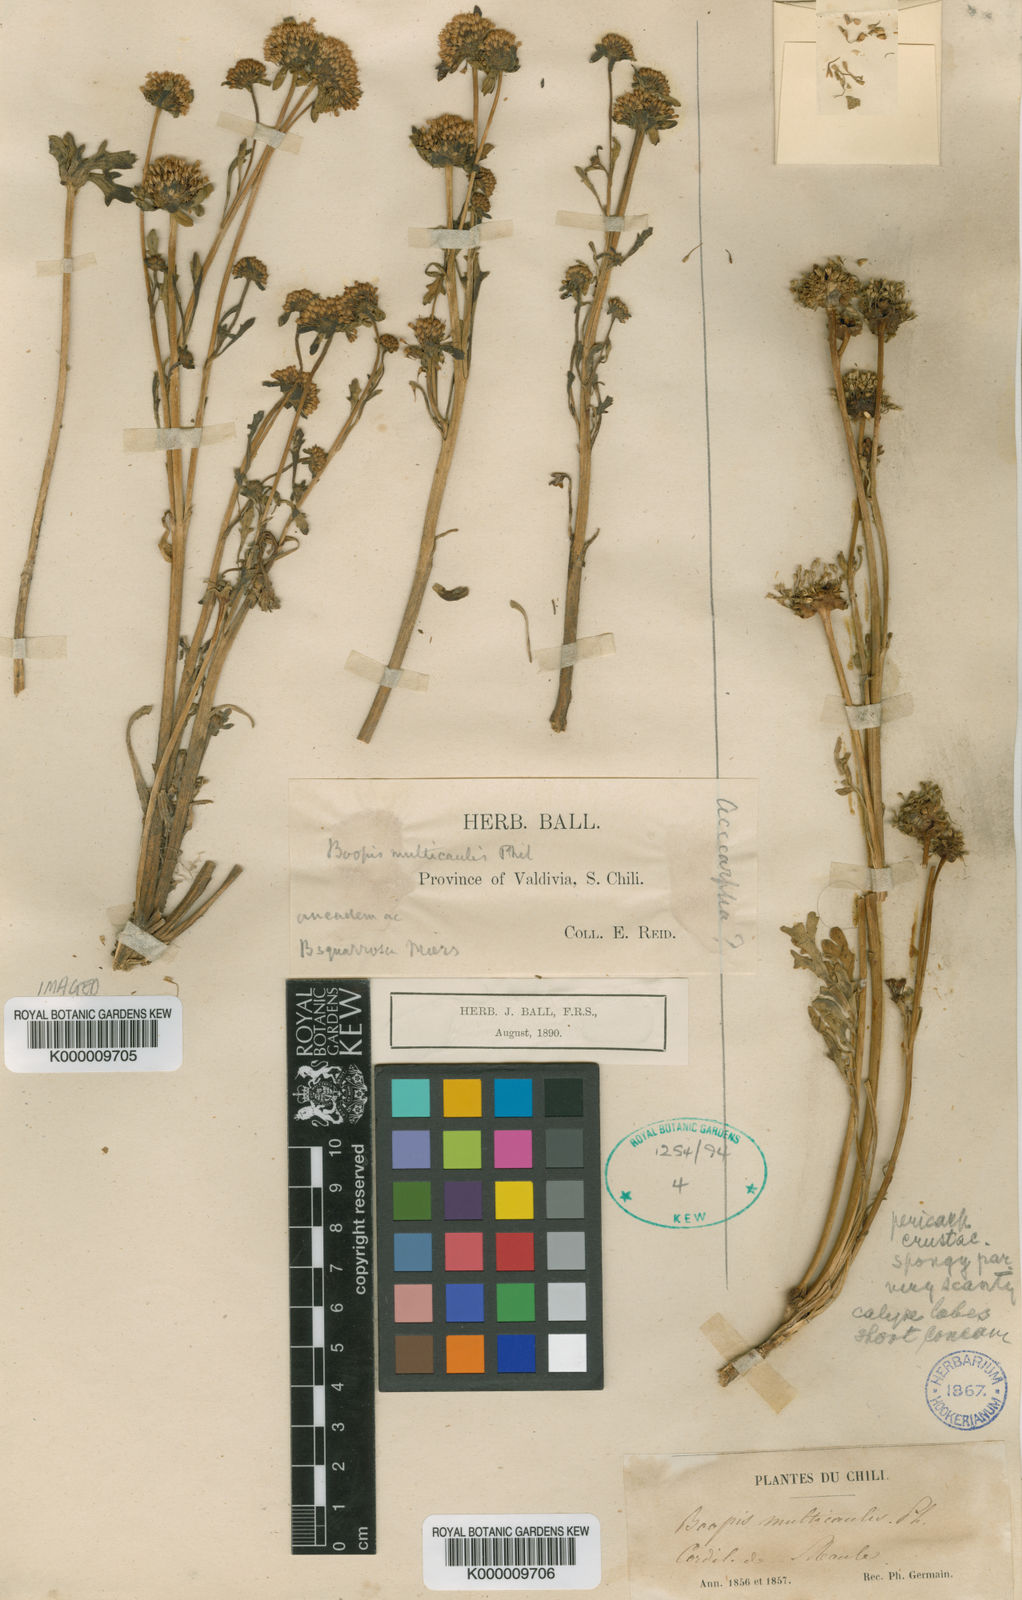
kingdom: Plantae
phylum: Tracheophyta
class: Magnoliopsida
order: Asterales
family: Calyceraceae
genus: Gamocarpha
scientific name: Gamocarpha multicaulis
